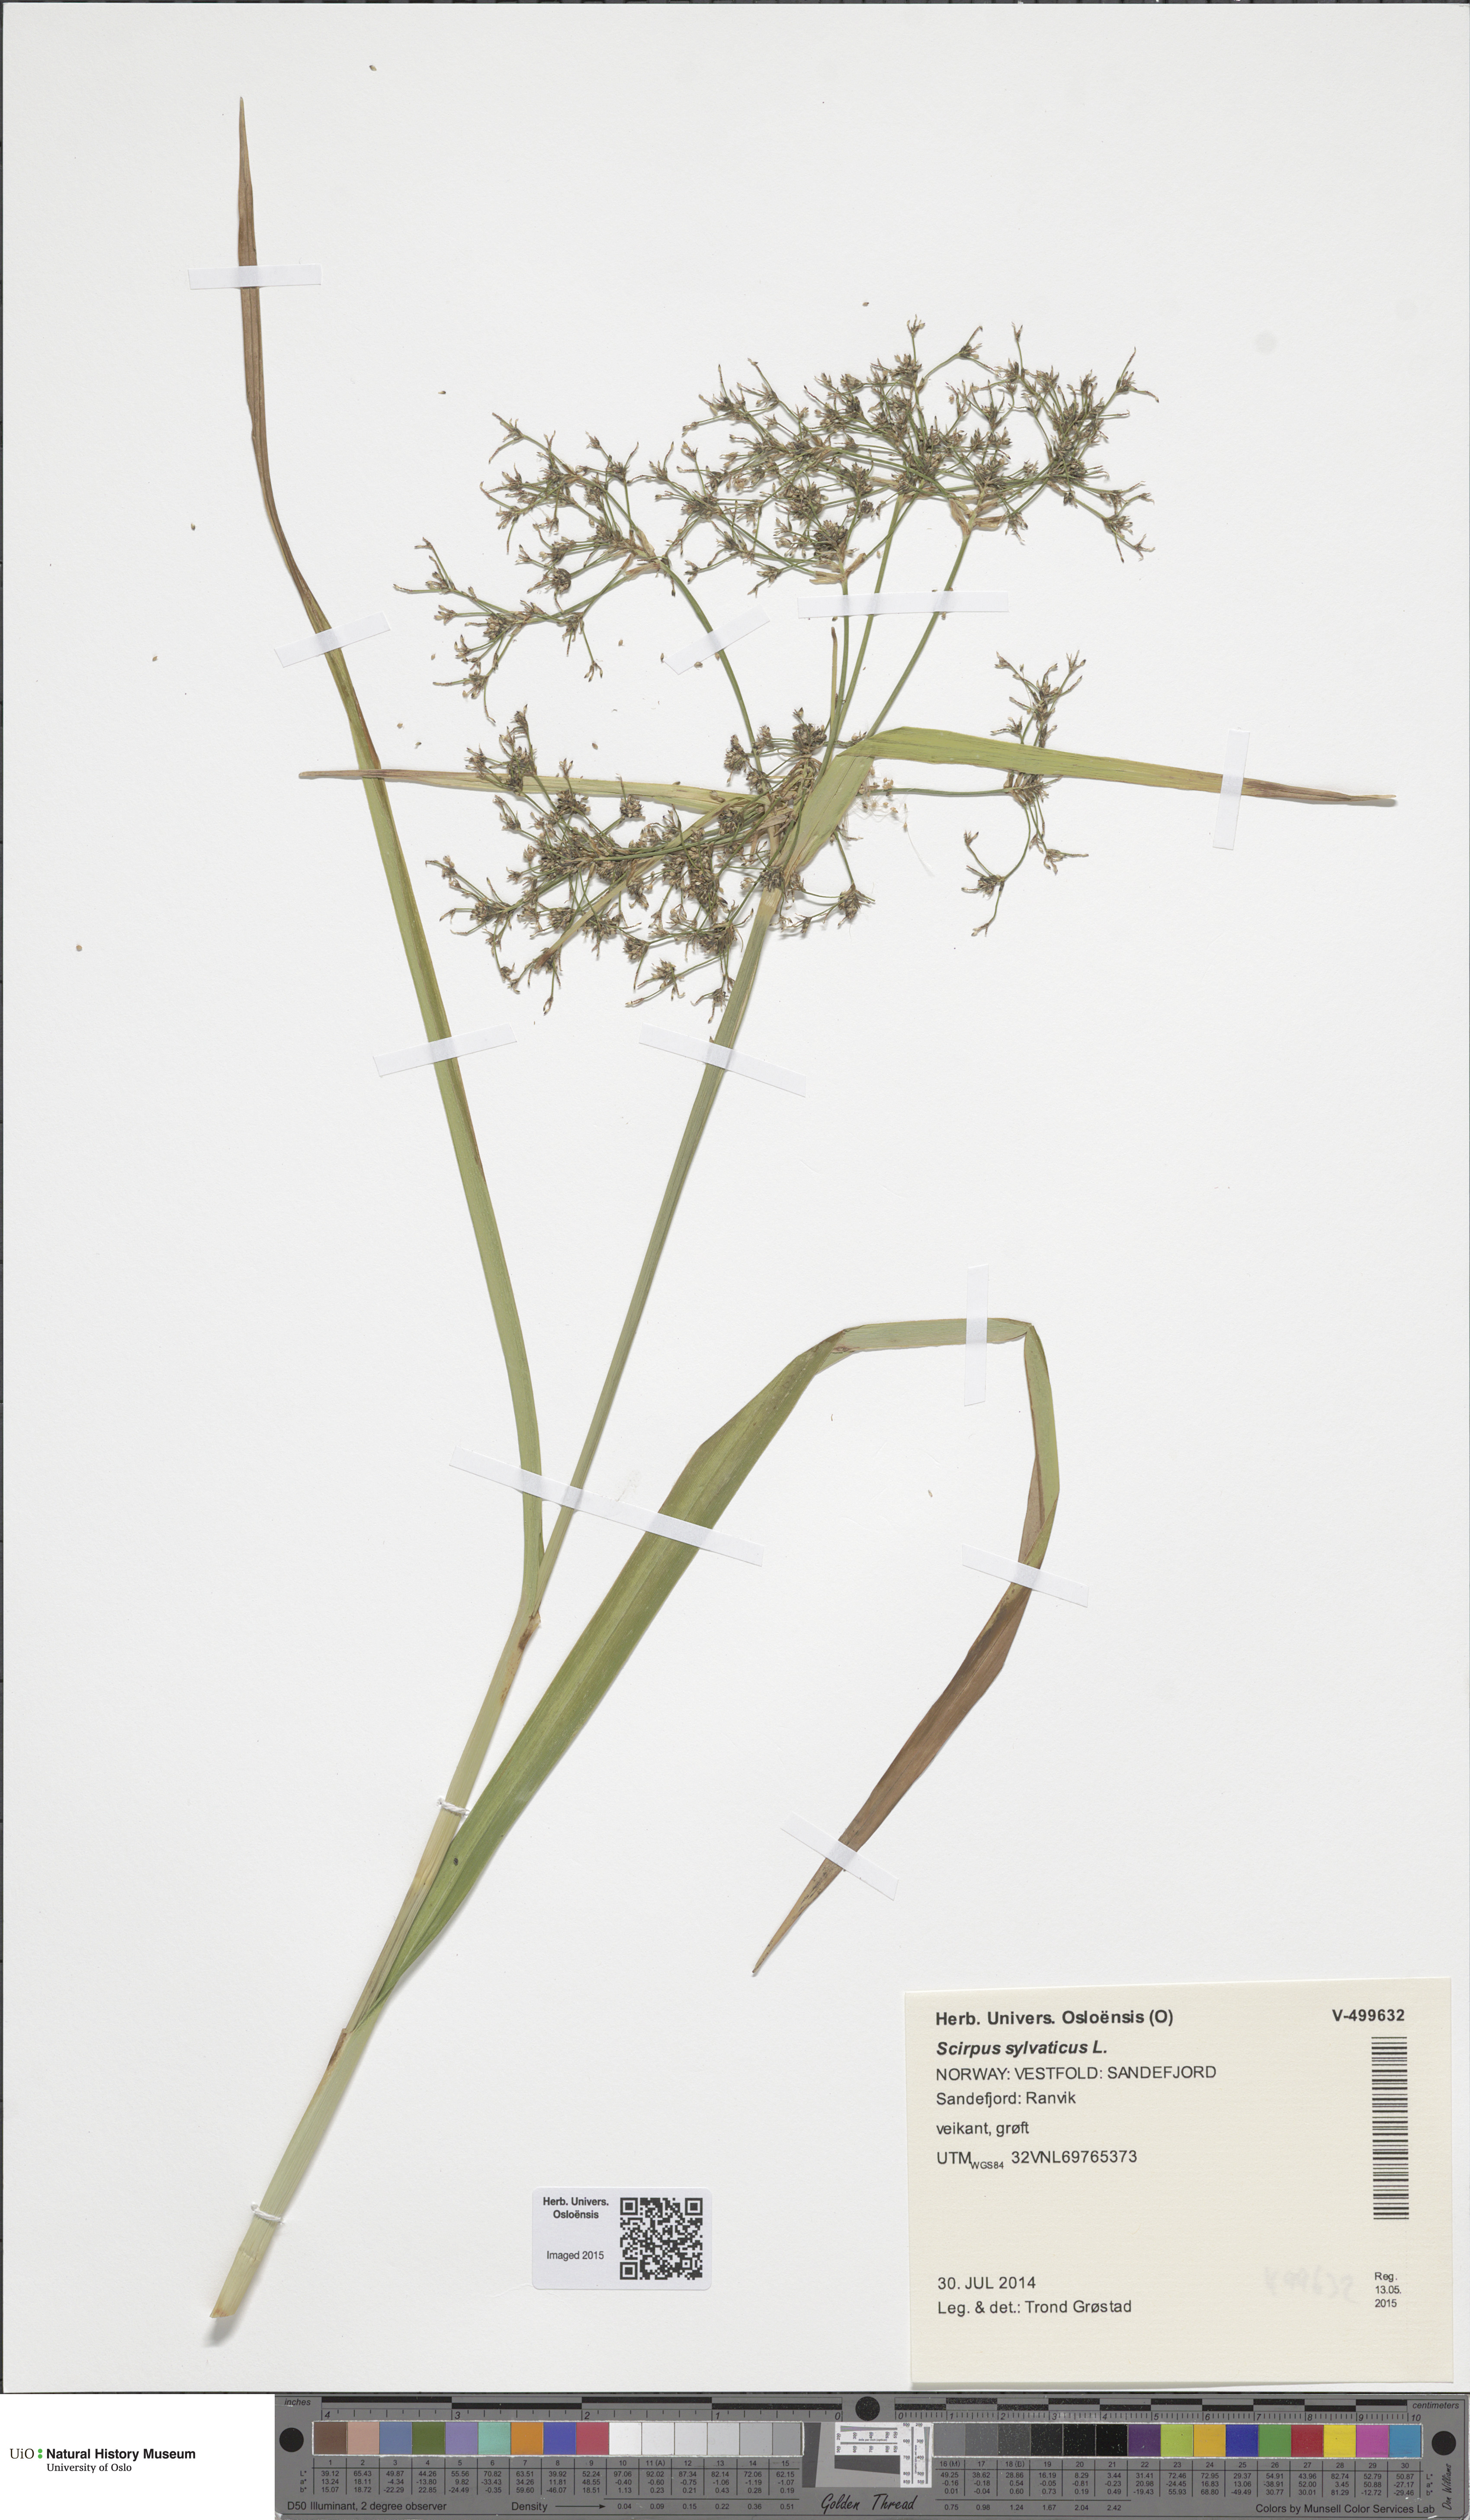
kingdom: Plantae
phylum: Tracheophyta
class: Liliopsida
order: Poales
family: Cyperaceae
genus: Scirpus
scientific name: Scirpus sylvaticus
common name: Wood club-rush
